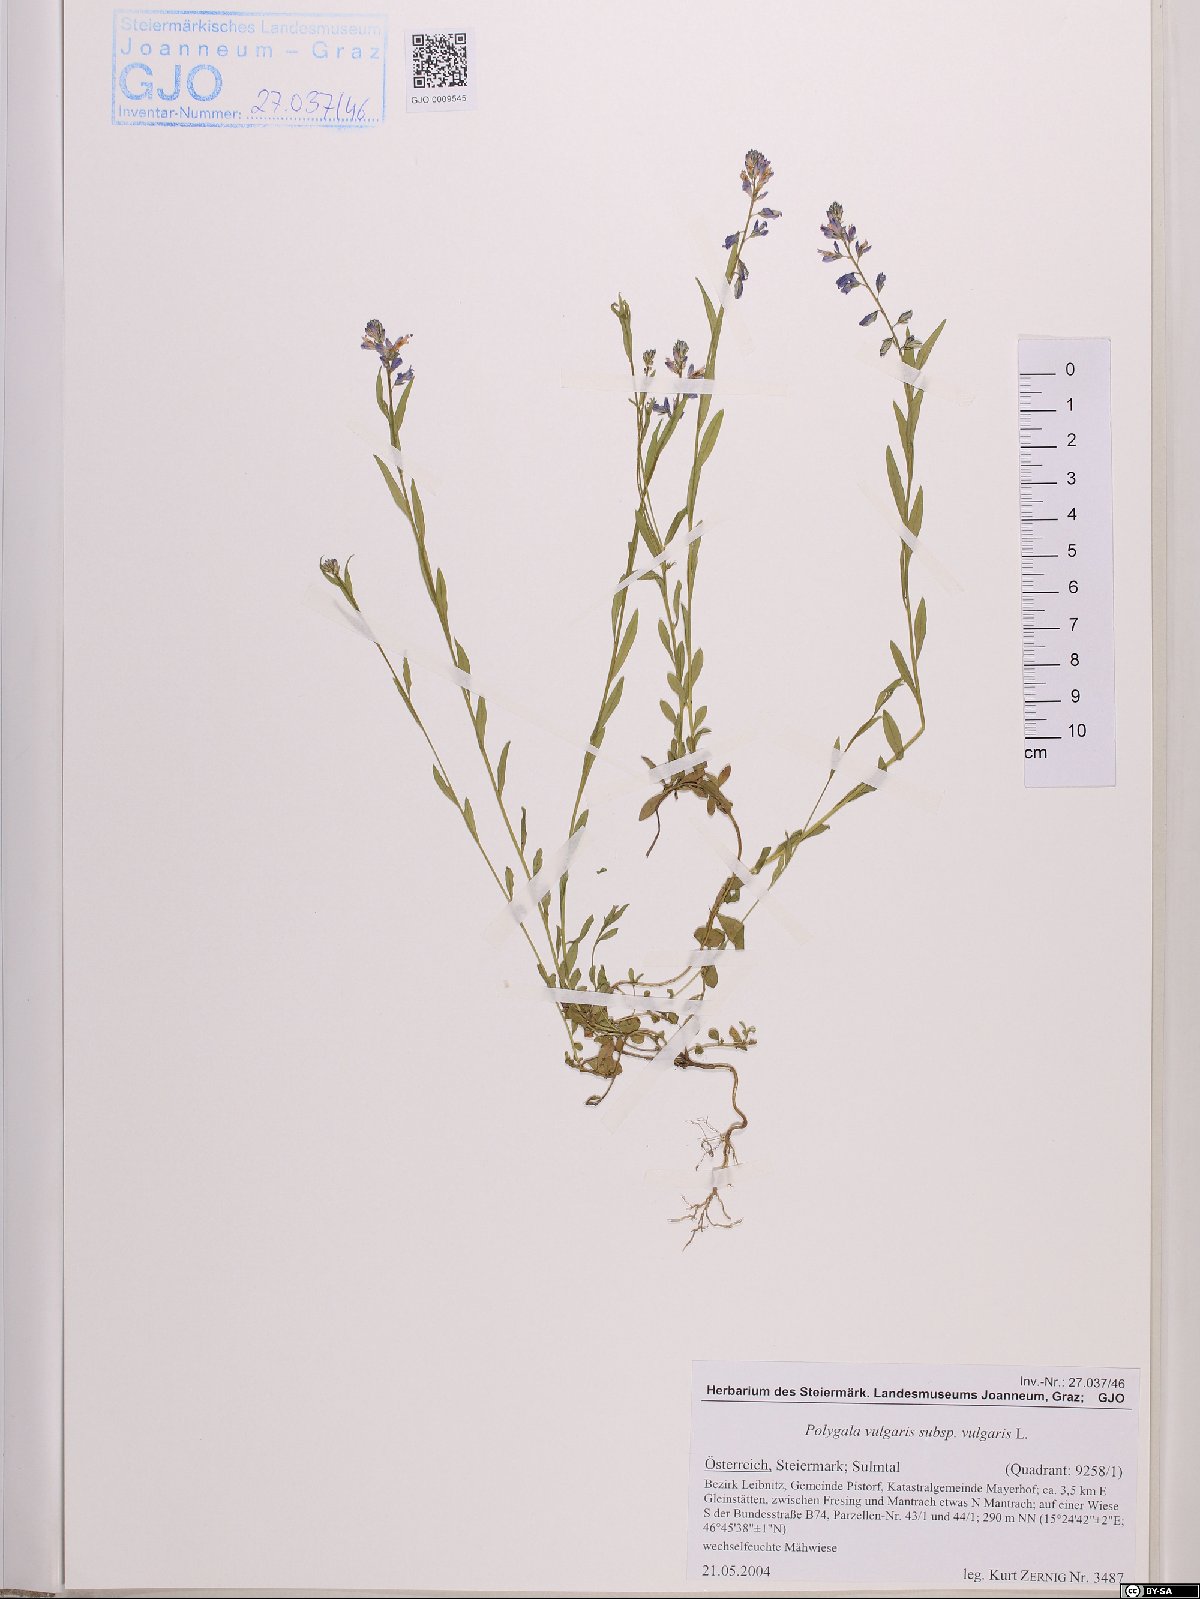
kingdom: Plantae
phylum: Tracheophyta
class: Magnoliopsida
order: Fabales
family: Polygalaceae
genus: Polygala
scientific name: Polygala vulgaris
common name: Common milkwort
